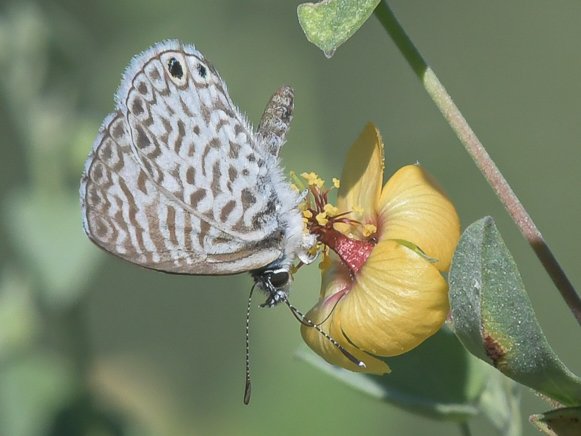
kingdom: Animalia
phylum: Arthropoda
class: Insecta
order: Lepidoptera
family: Lycaenidae
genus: Leptotes
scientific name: Leptotes cassius
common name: Cassius Blue
